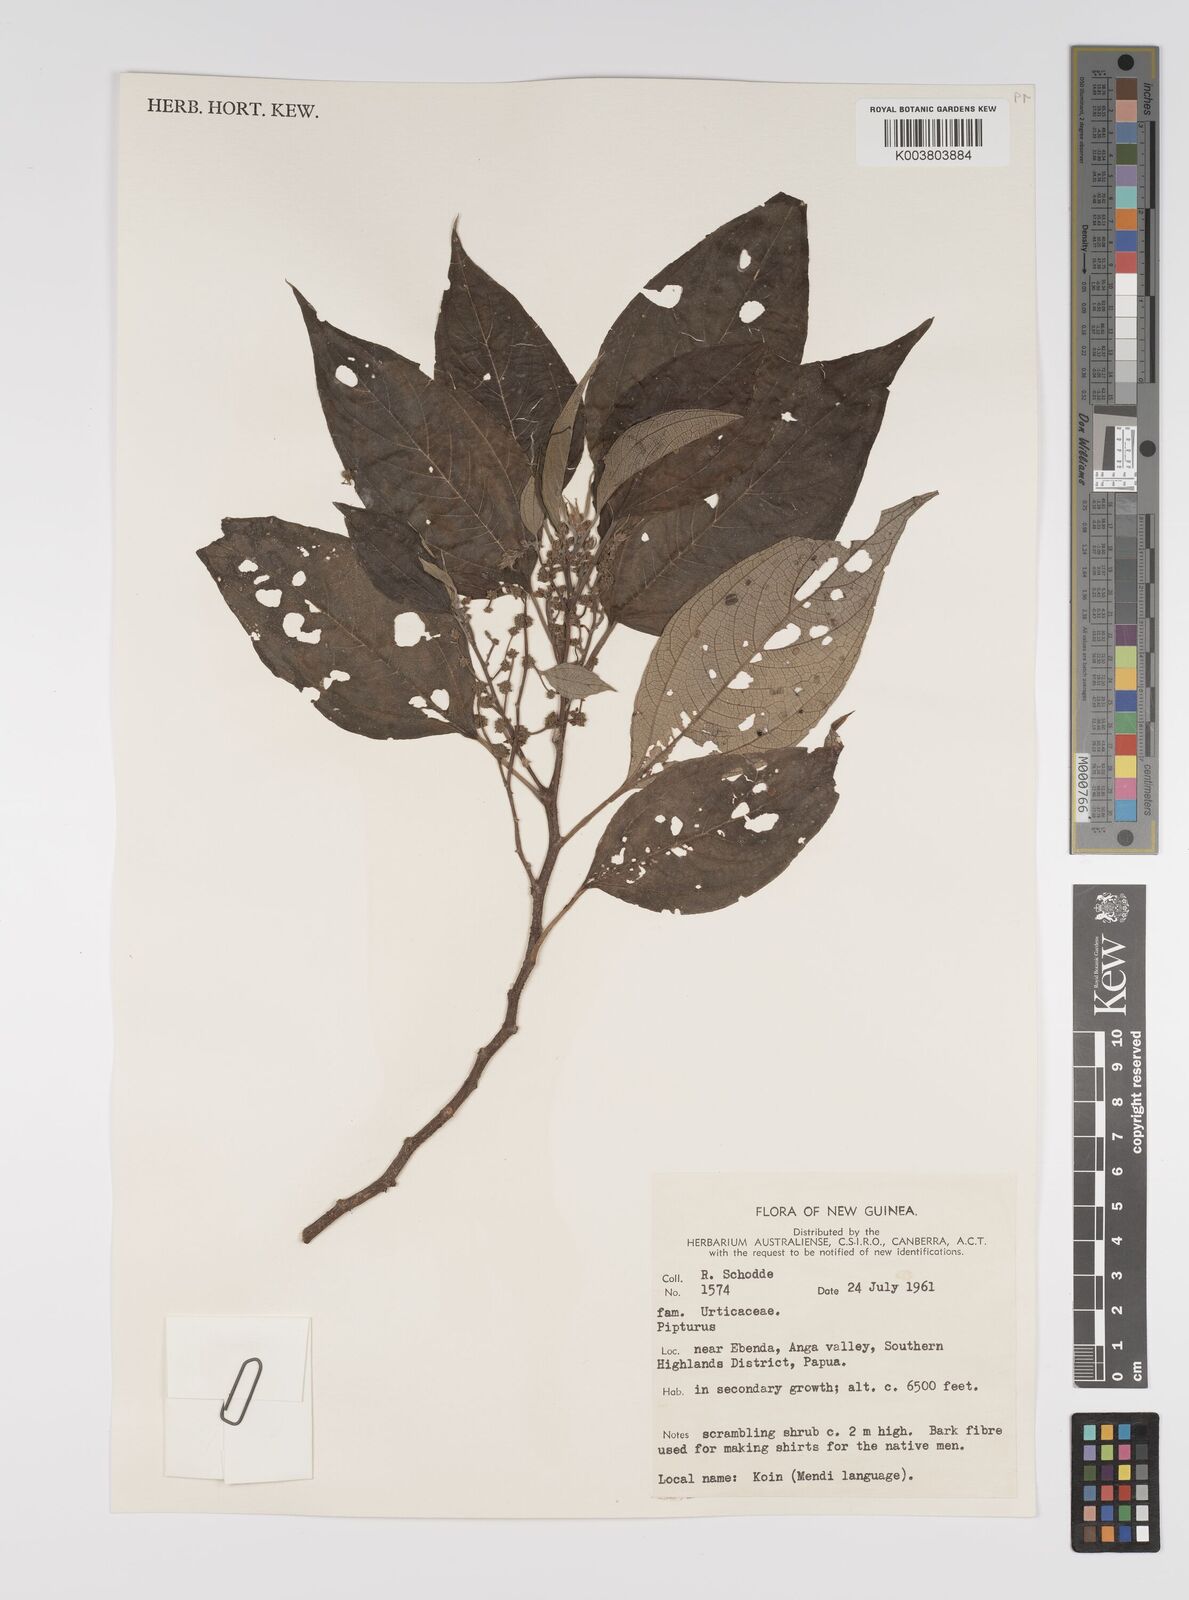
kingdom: Plantae
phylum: Tracheophyta
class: Magnoliopsida
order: Rosales
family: Urticaceae
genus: Pipturus
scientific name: Pipturus argenteus
